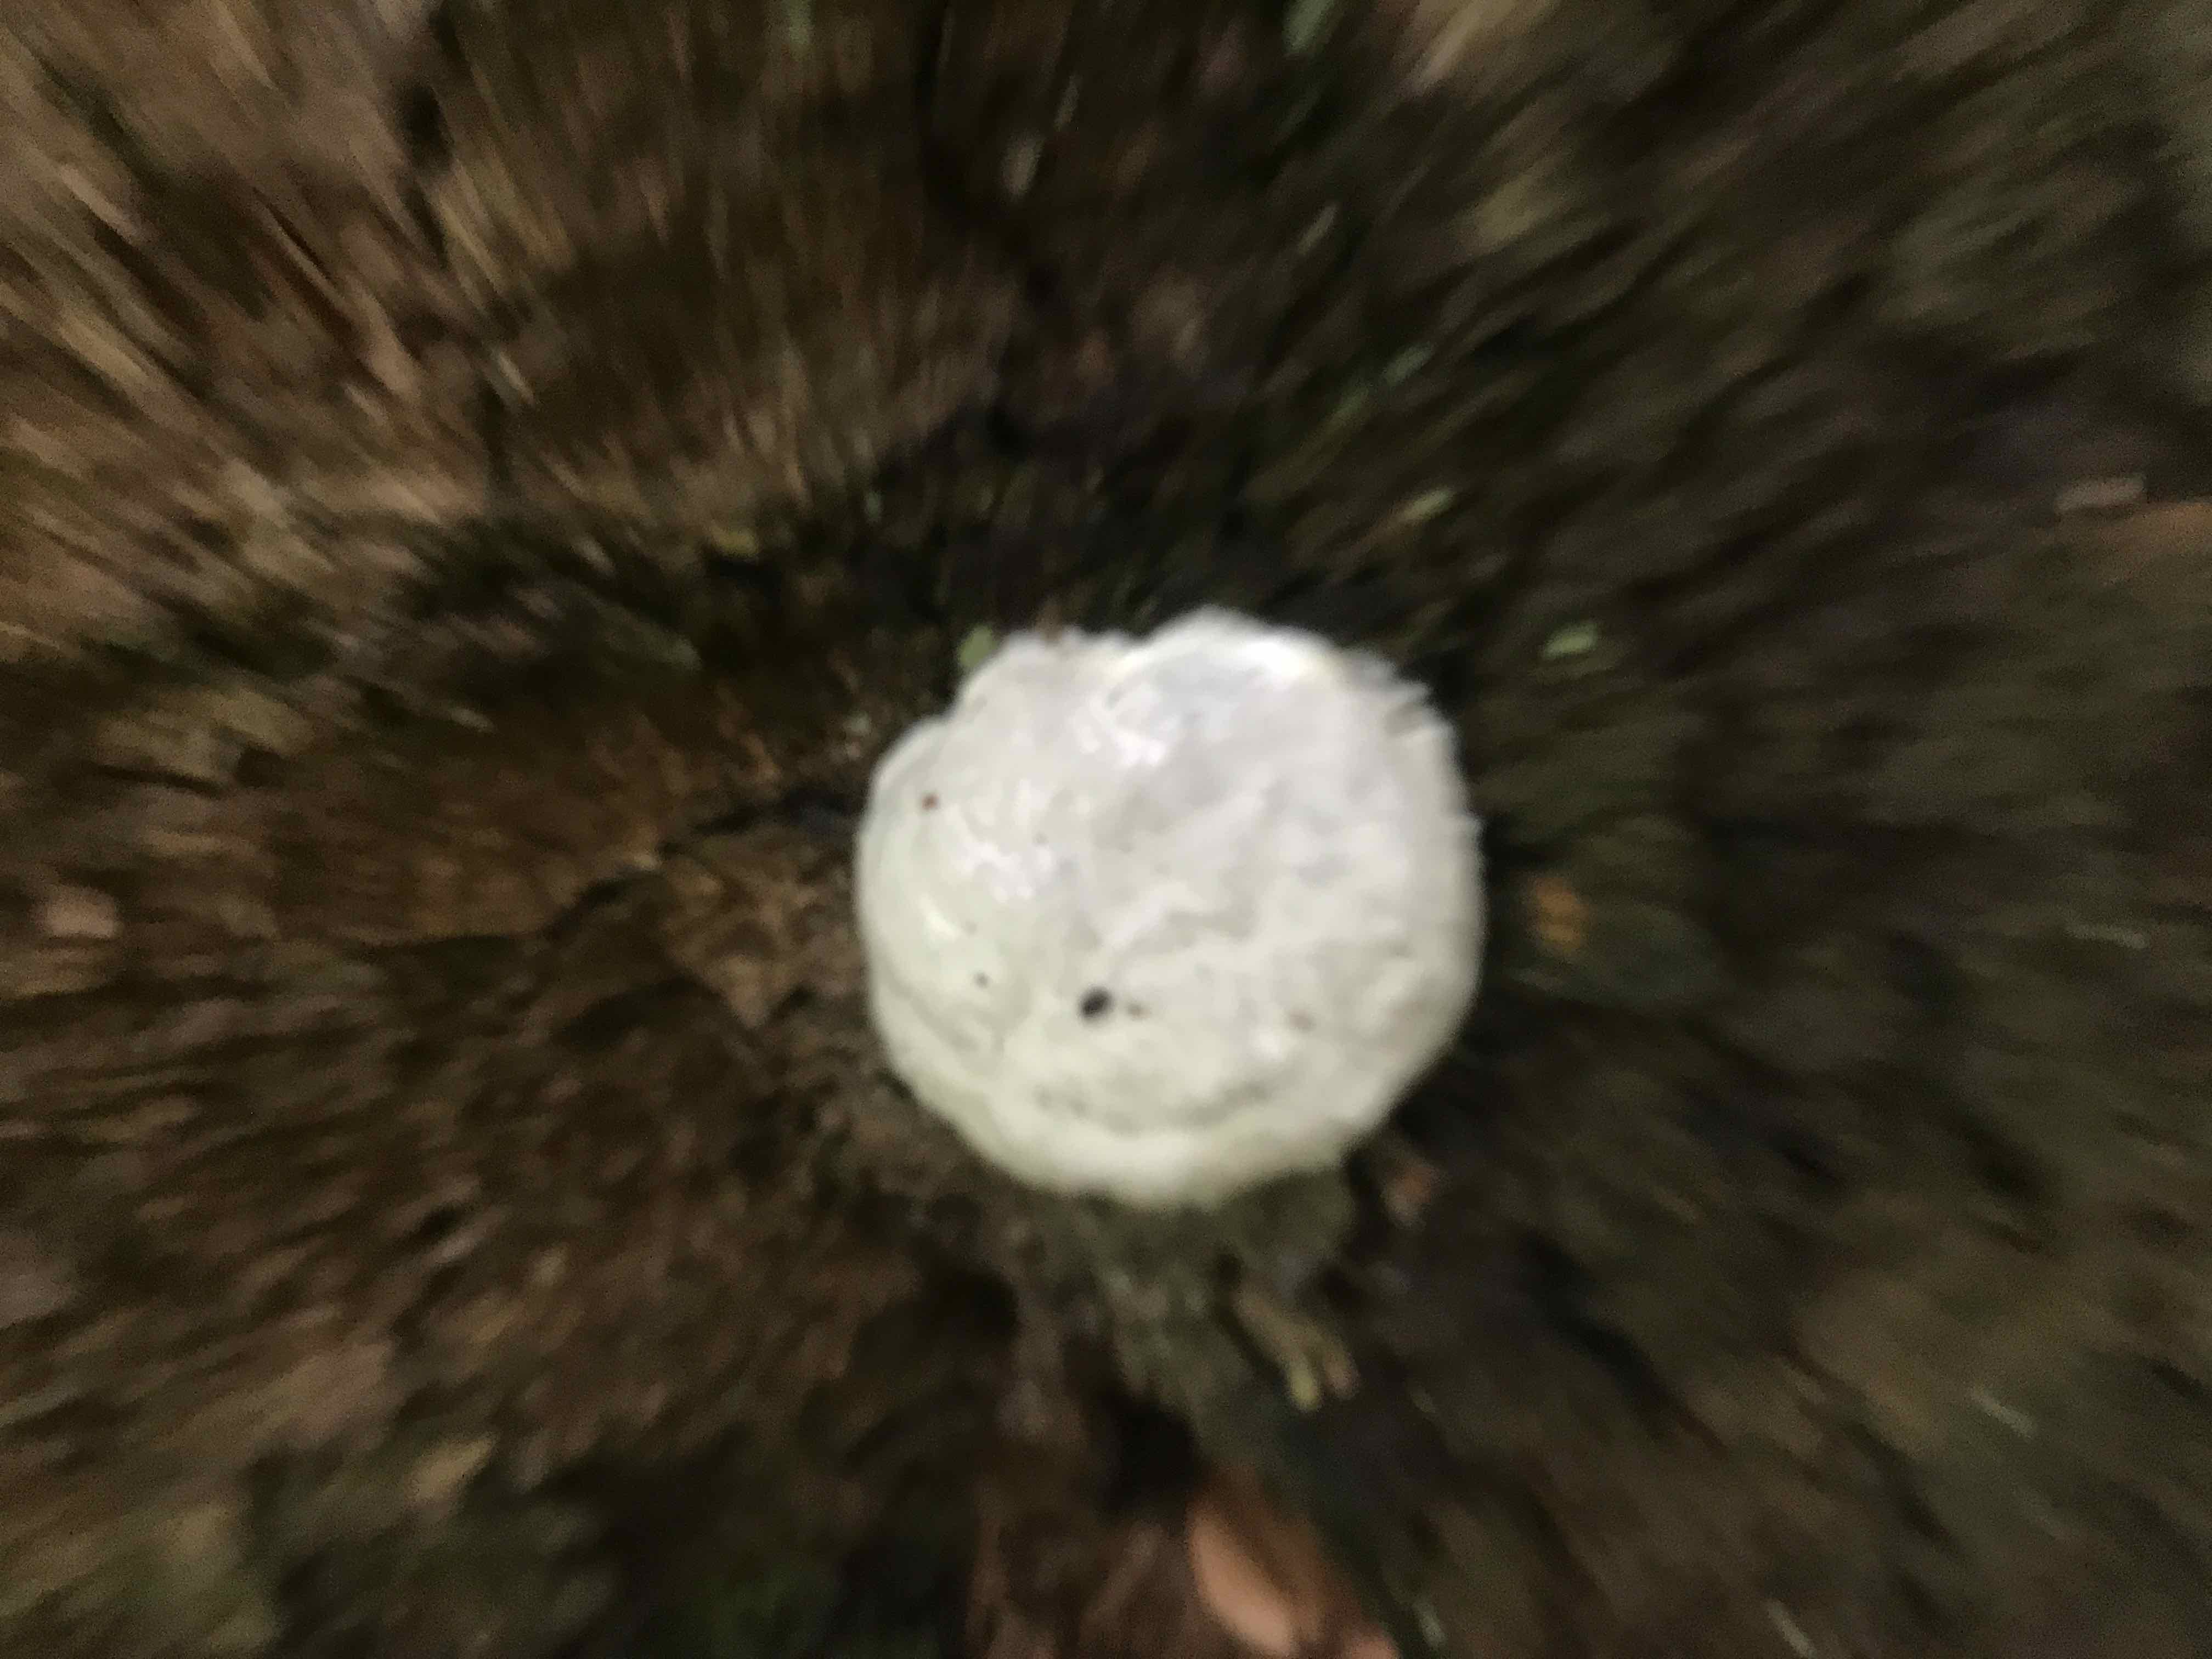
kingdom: Protozoa
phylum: Mycetozoa
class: Myxomycetes
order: Cribrariales
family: Tubiferaceae
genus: Reticularia
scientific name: Reticularia
